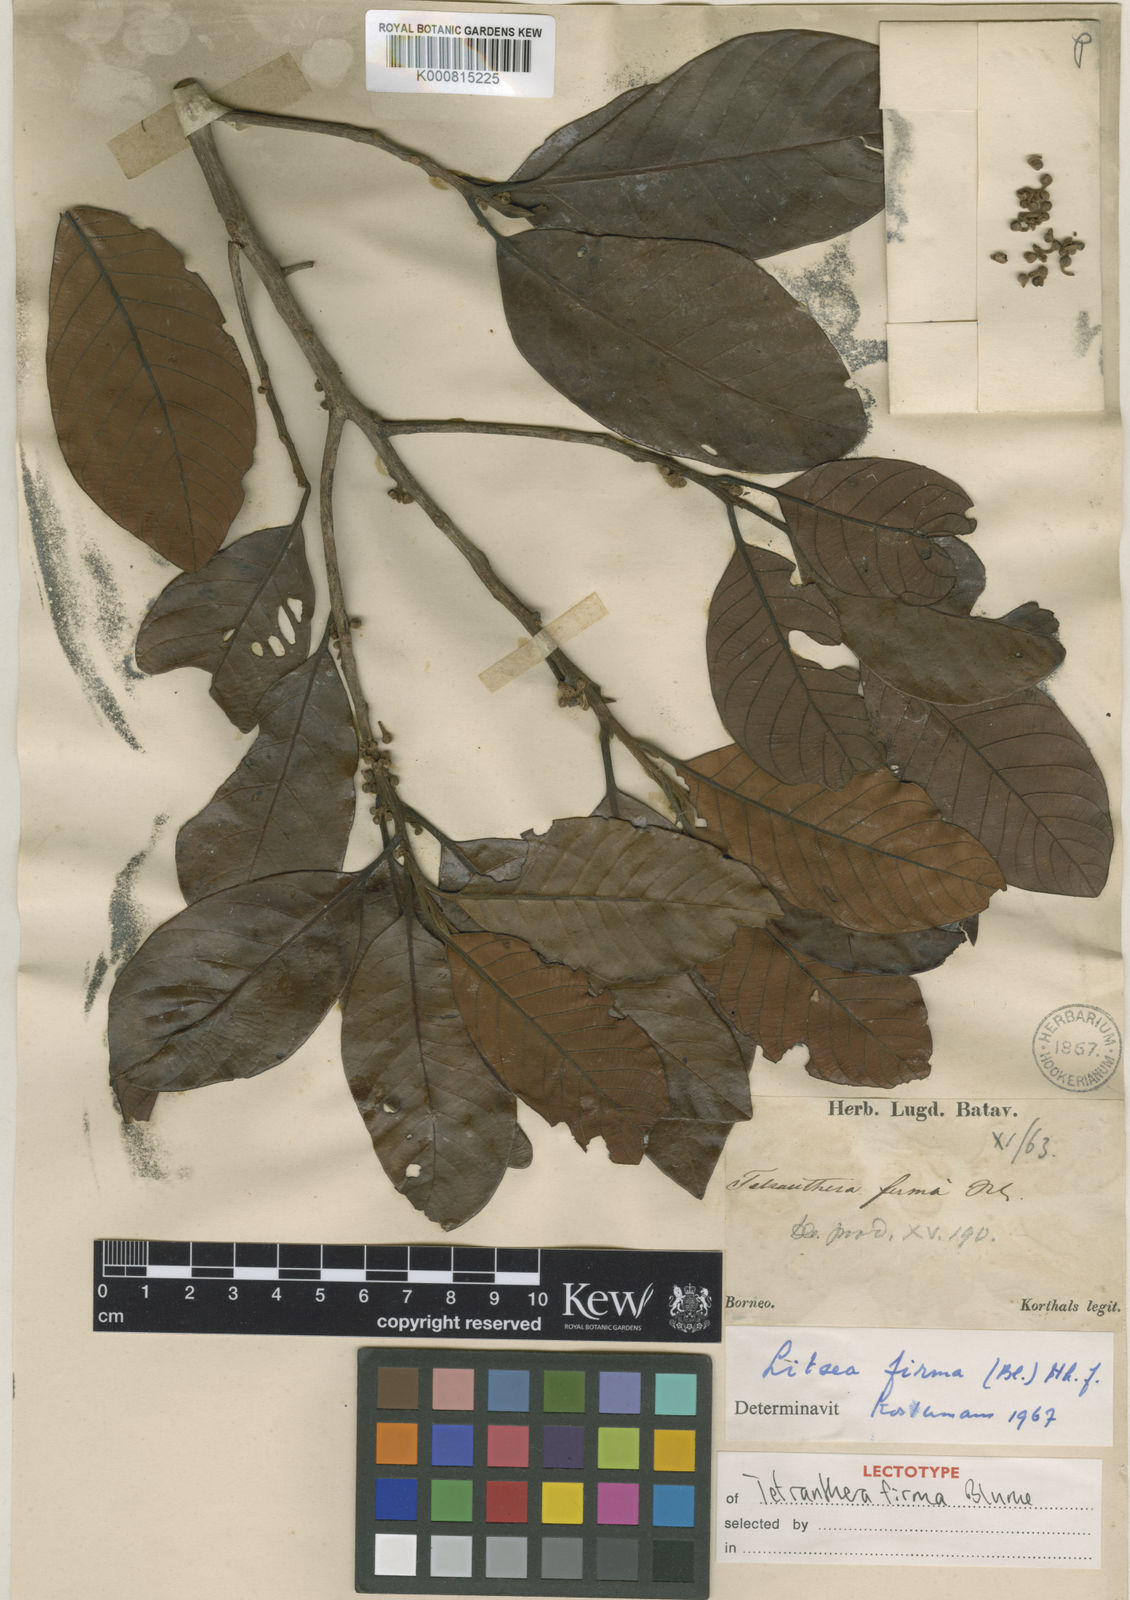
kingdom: Plantae
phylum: Tracheophyta
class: Magnoliopsida
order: Laurales
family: Lauraceae
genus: Litsea
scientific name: Litsea firma
